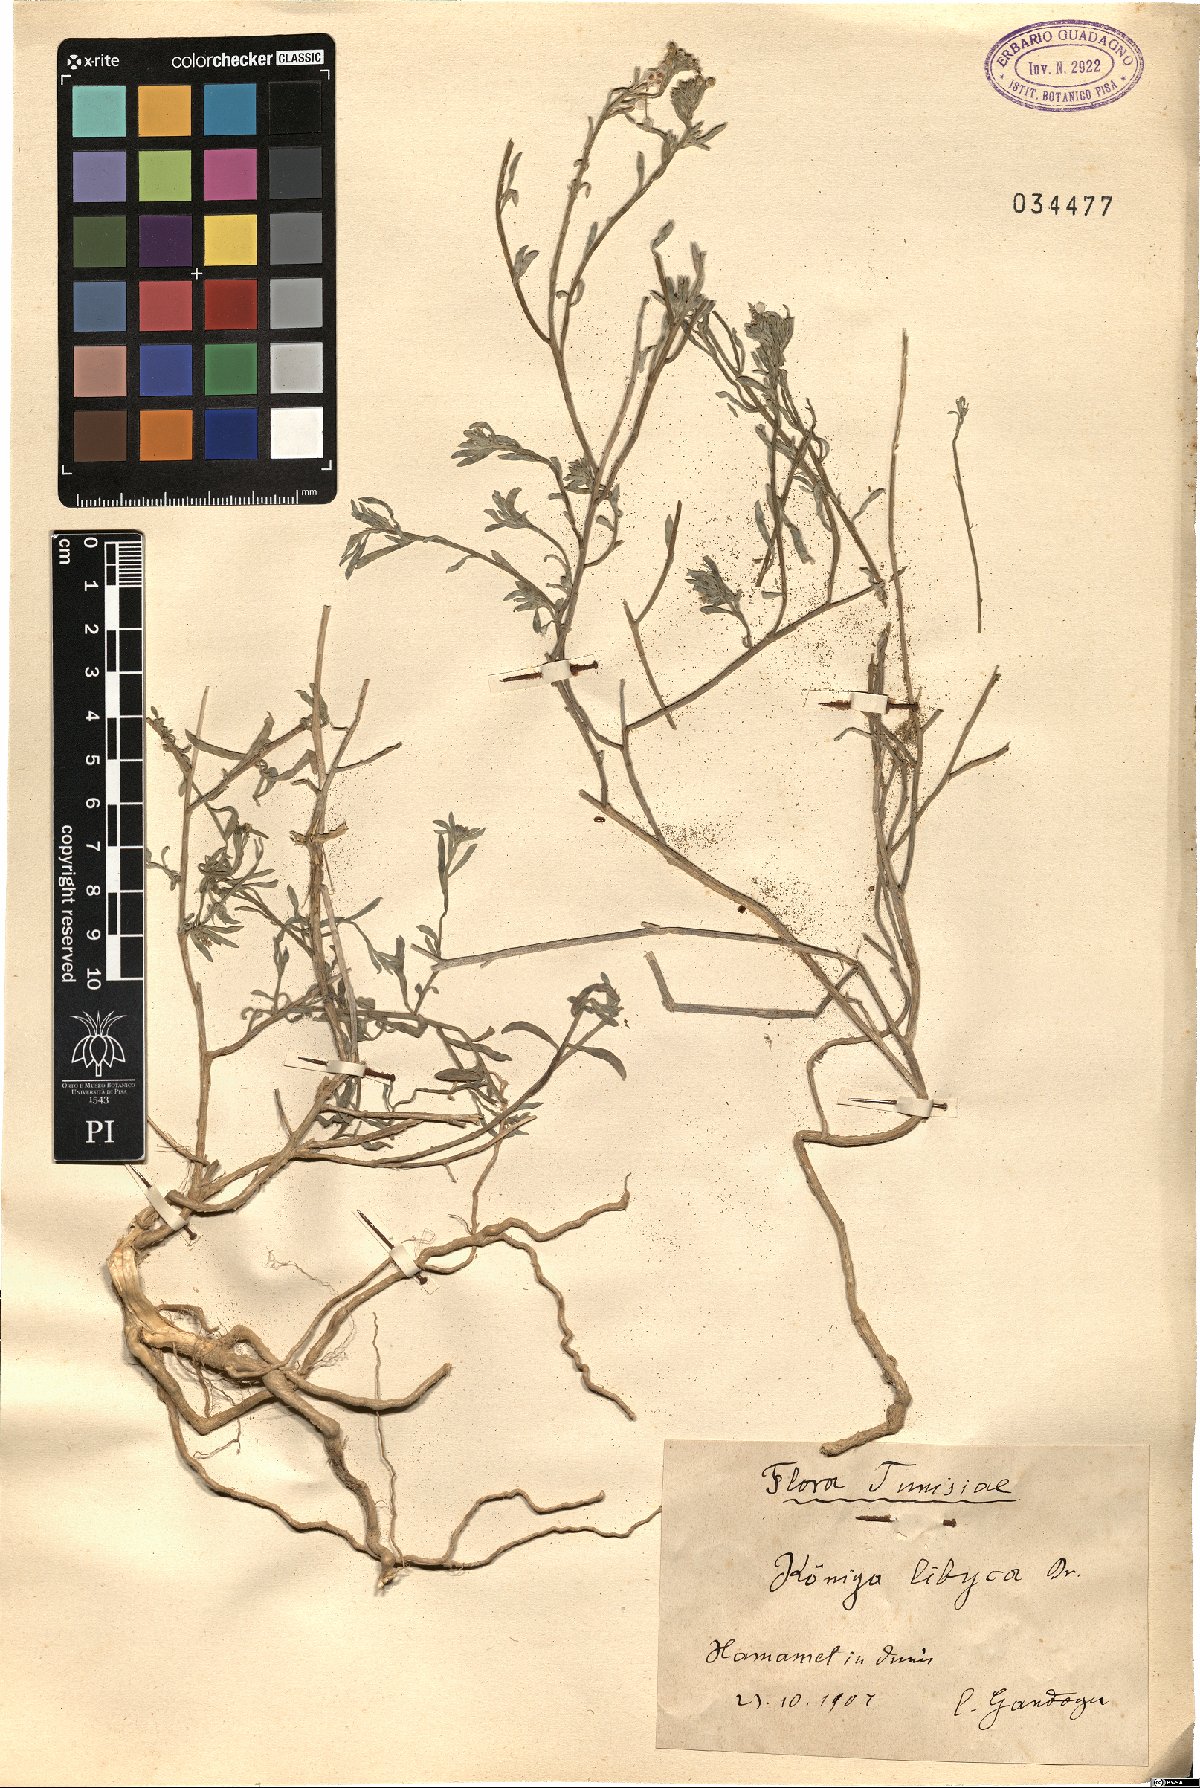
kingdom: Plantae
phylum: Tracheophyta
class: Magnoliopsida
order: Brassicales
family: Brassicaceae
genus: Lobularia
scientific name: Lobularia libyca
